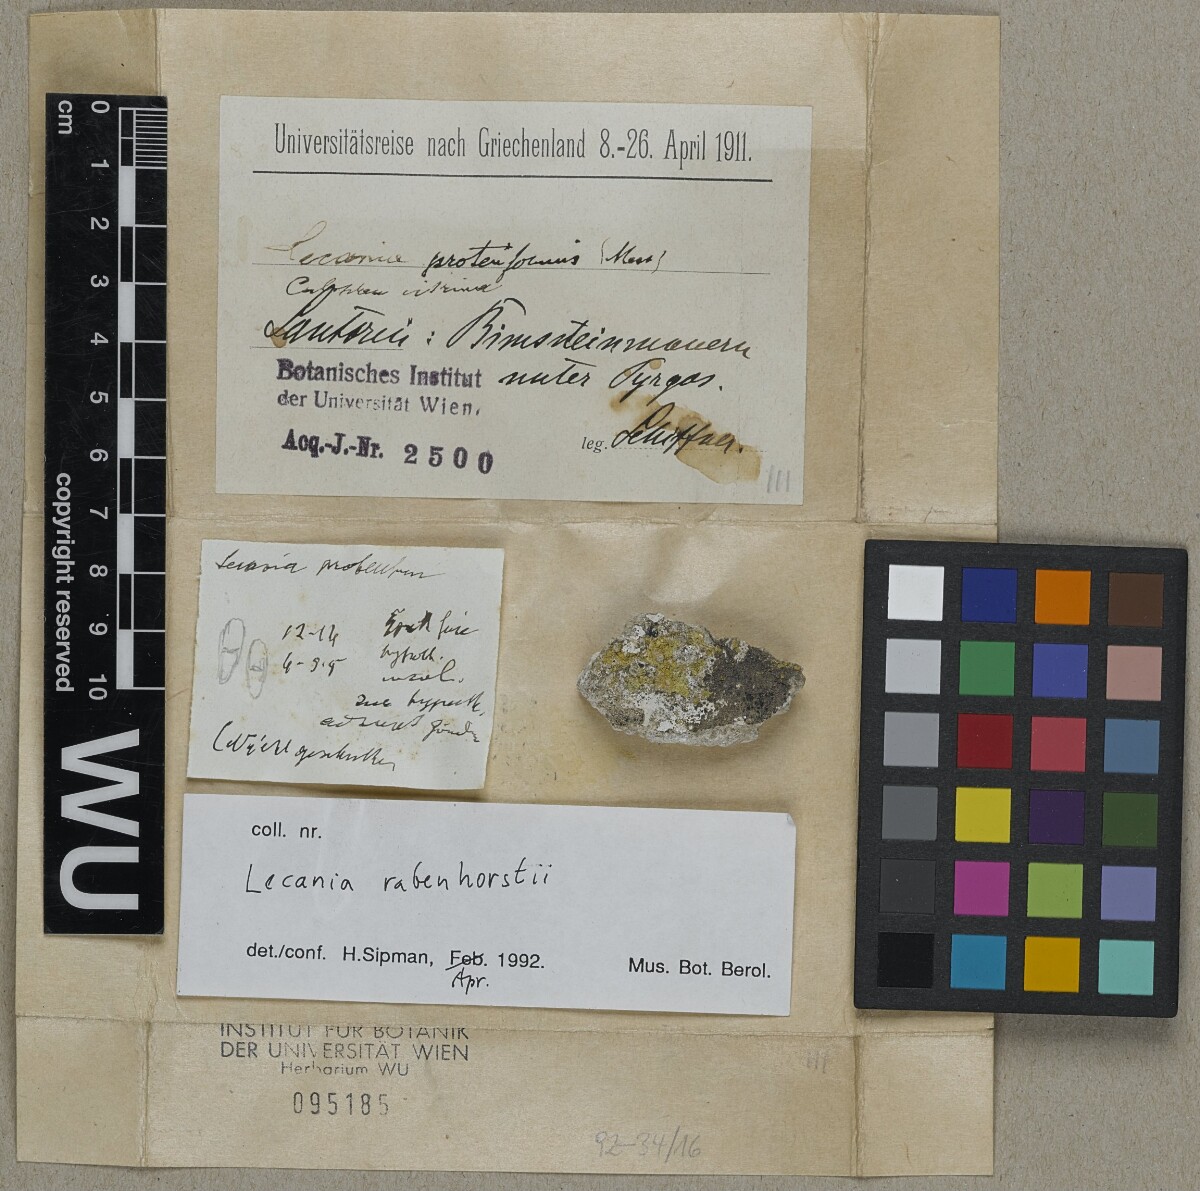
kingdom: Fungi
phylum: Ascomycota
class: Lecanoromycetes
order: Lecanorales
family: Ramalinaceae
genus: Lecania
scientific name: Lecania rabenhorstii
